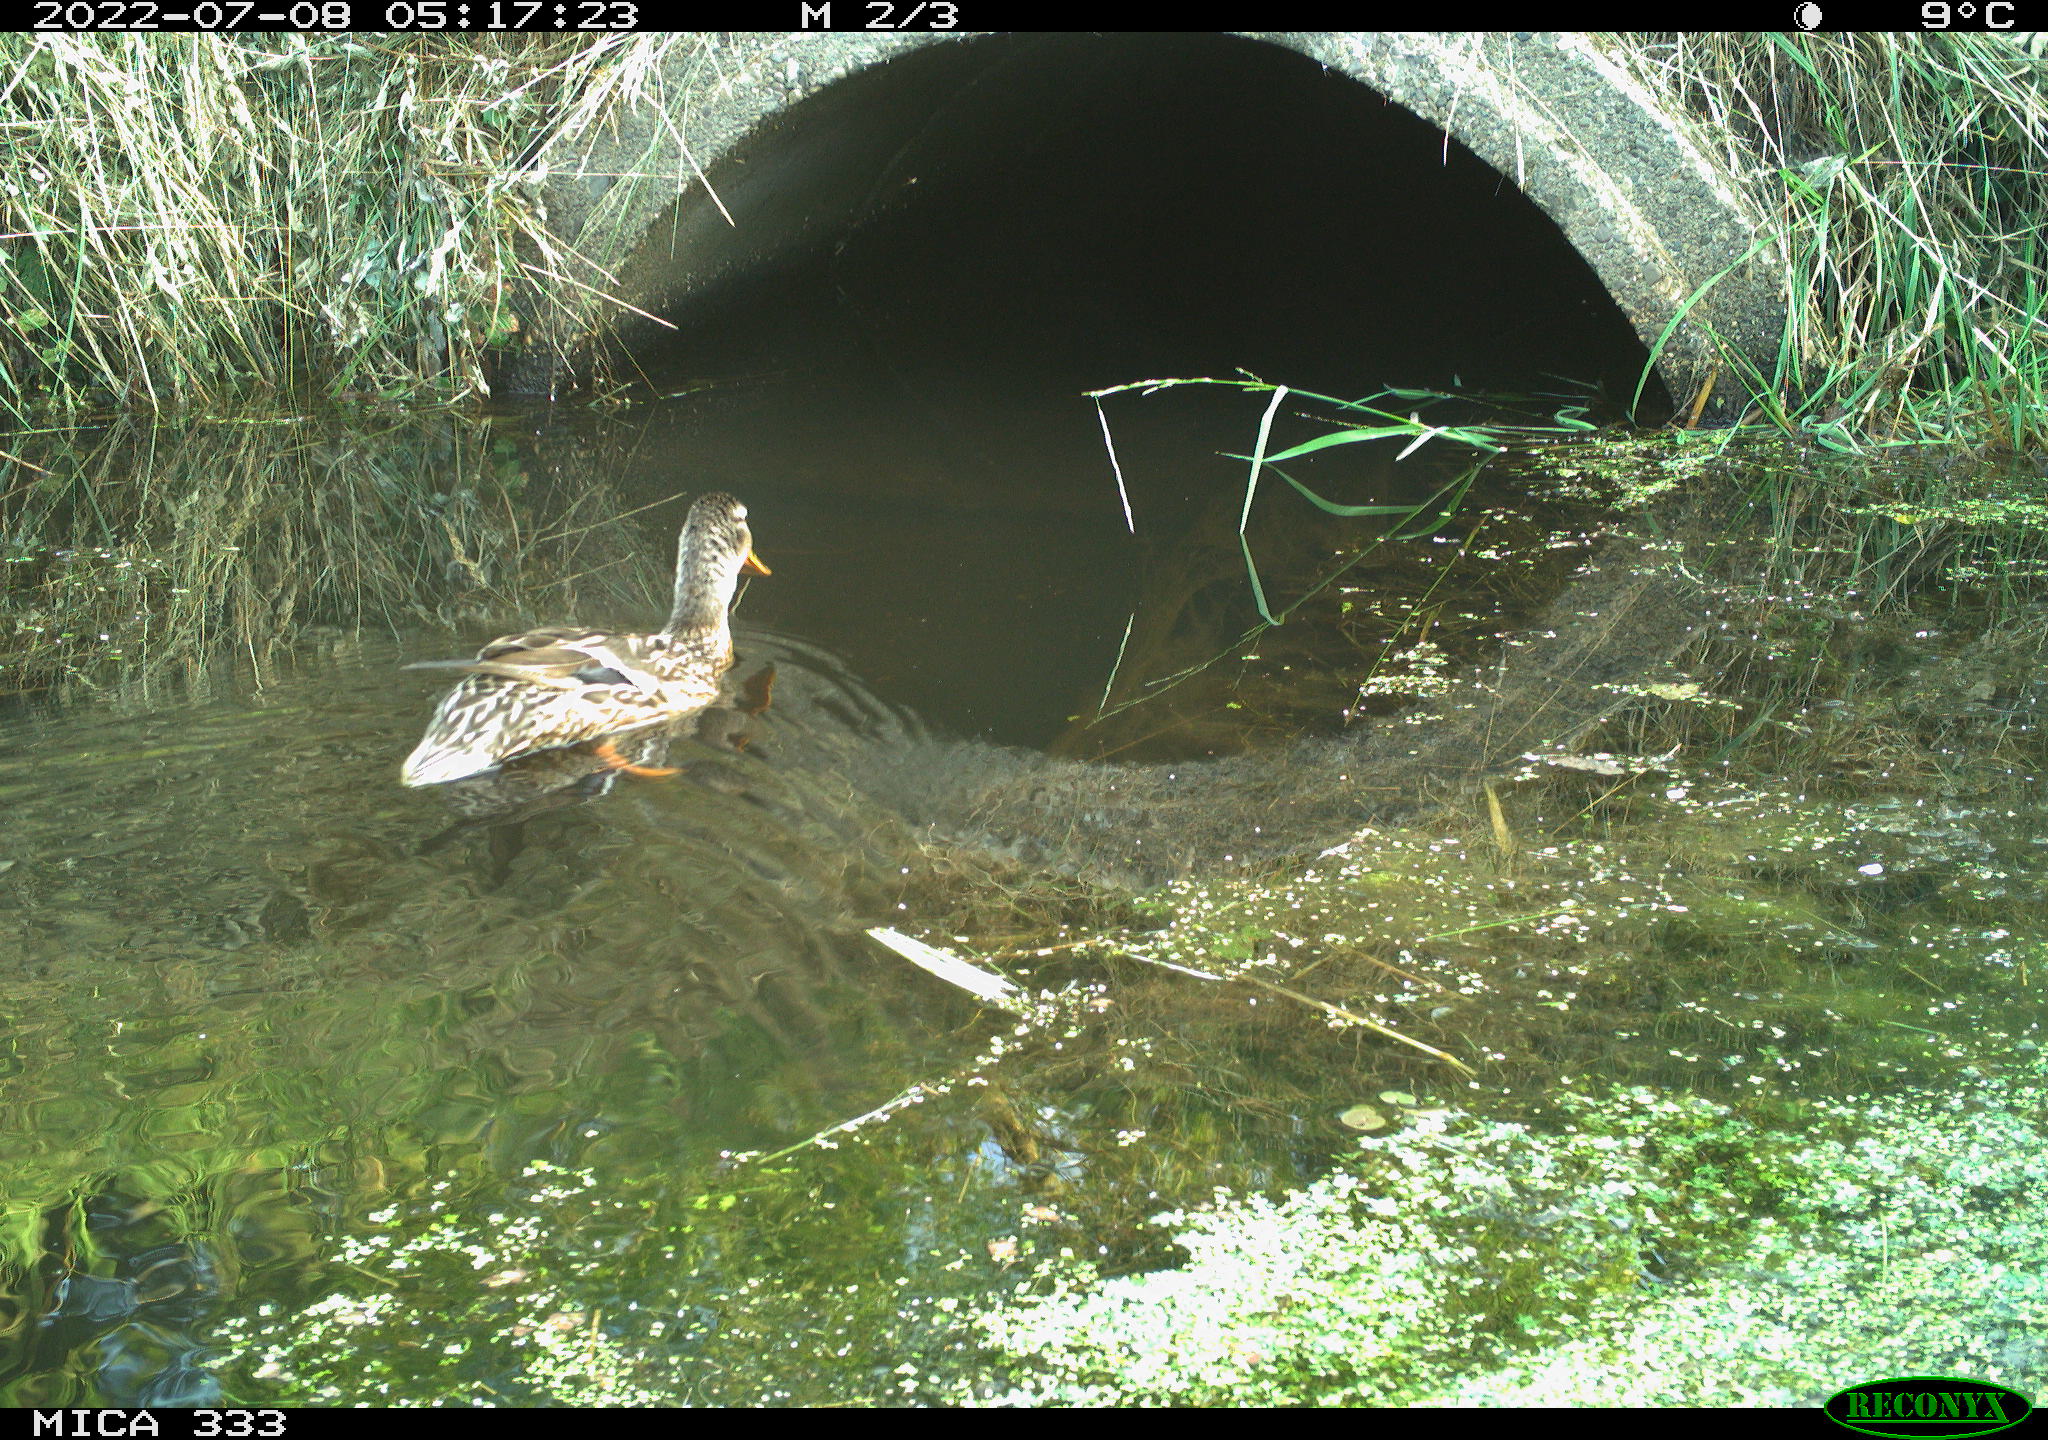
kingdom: Animalia
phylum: Chordata
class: Aves
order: Anseriformes
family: Anatidae
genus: Anas
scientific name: Anas platyrhynchos
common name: Mallard
